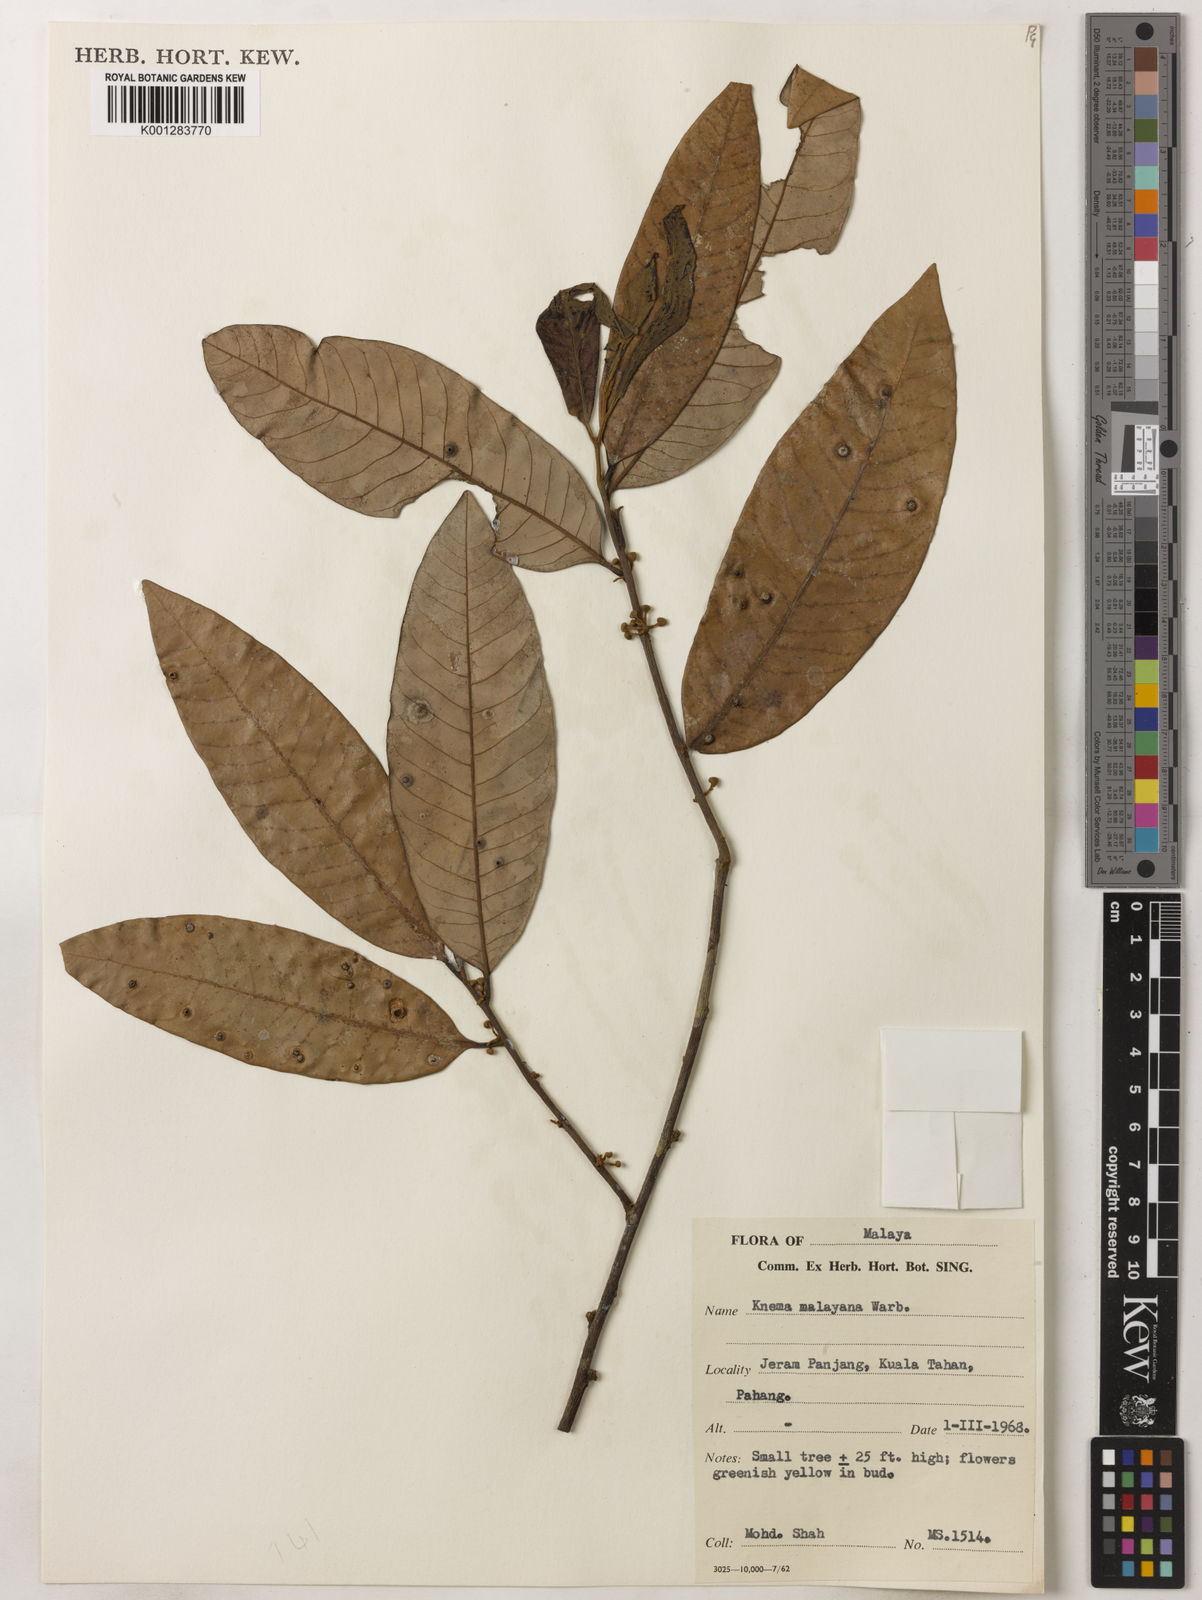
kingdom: Plantae
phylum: Tracheophyta
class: Magnoliopsida
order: Magnoliales
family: Myristicaceae
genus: Knema
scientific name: Knema malayana
